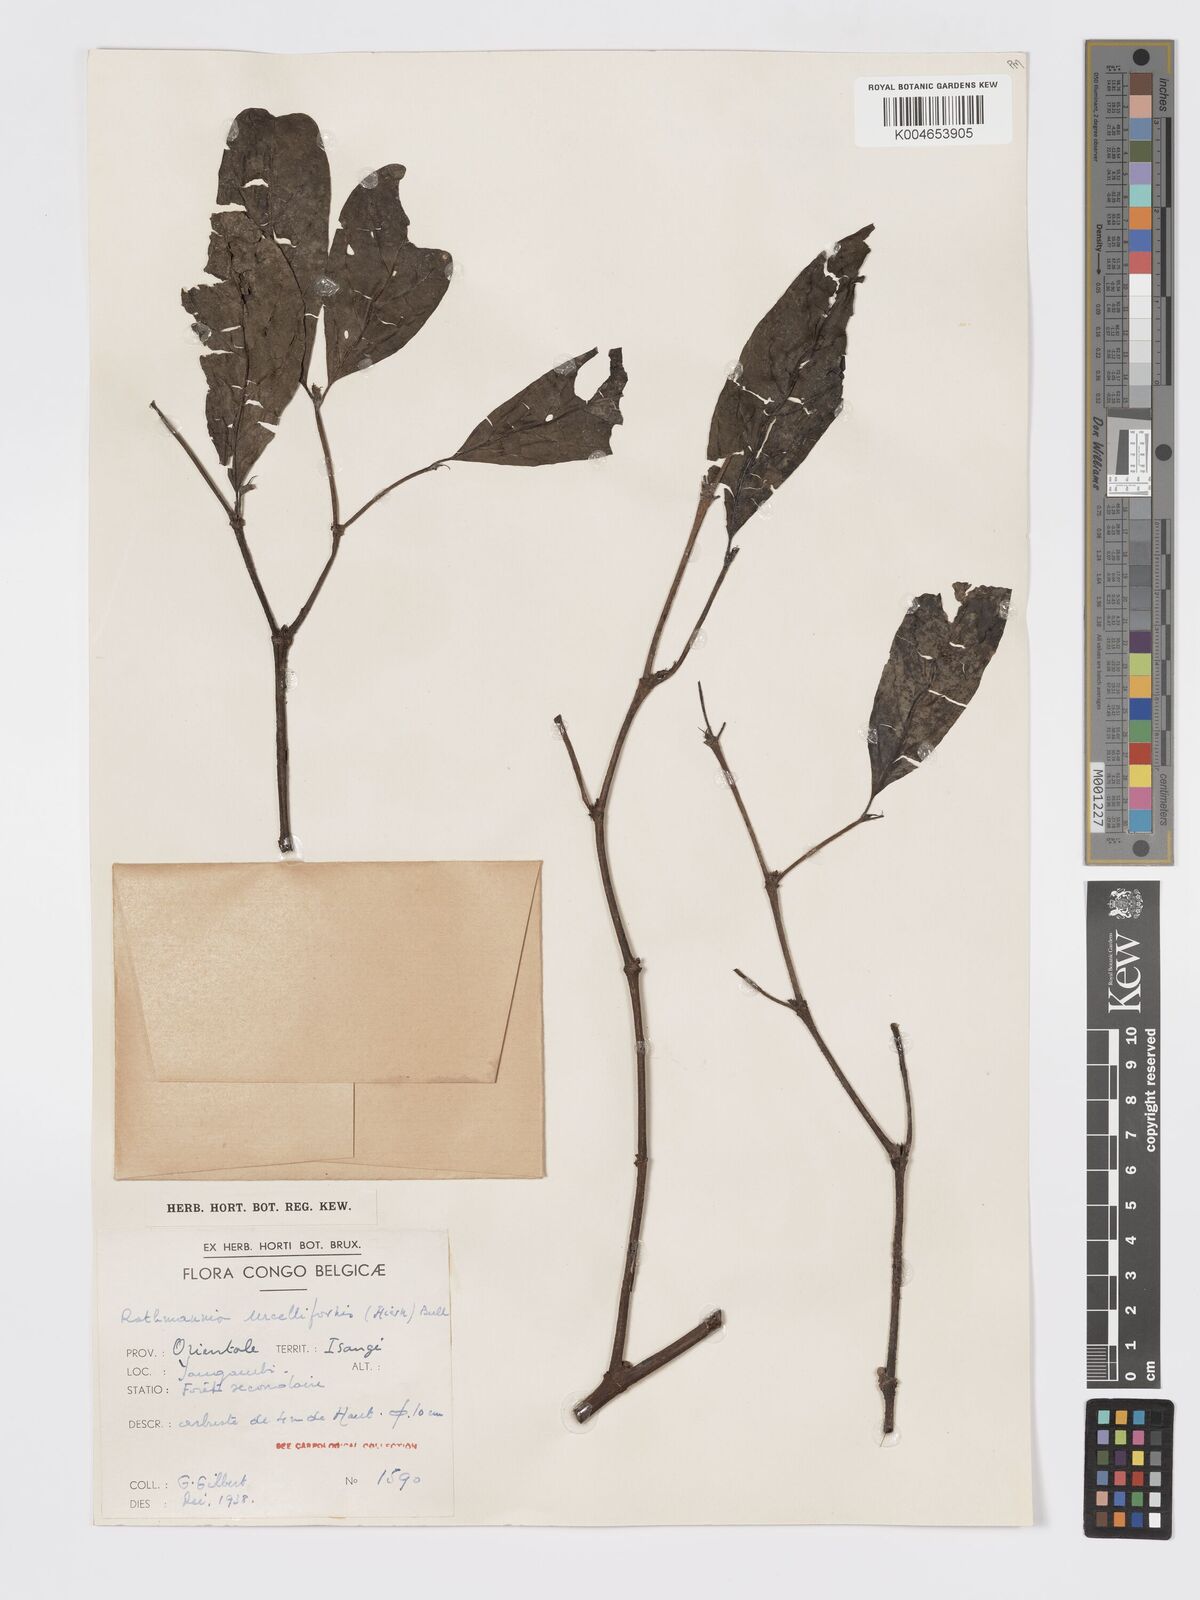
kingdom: Plantae
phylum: Tracheophyta
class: Magnoliopsida
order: Gentianales
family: Rubiaceae
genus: Rothmannia
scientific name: Rothmannia urcelliformis
